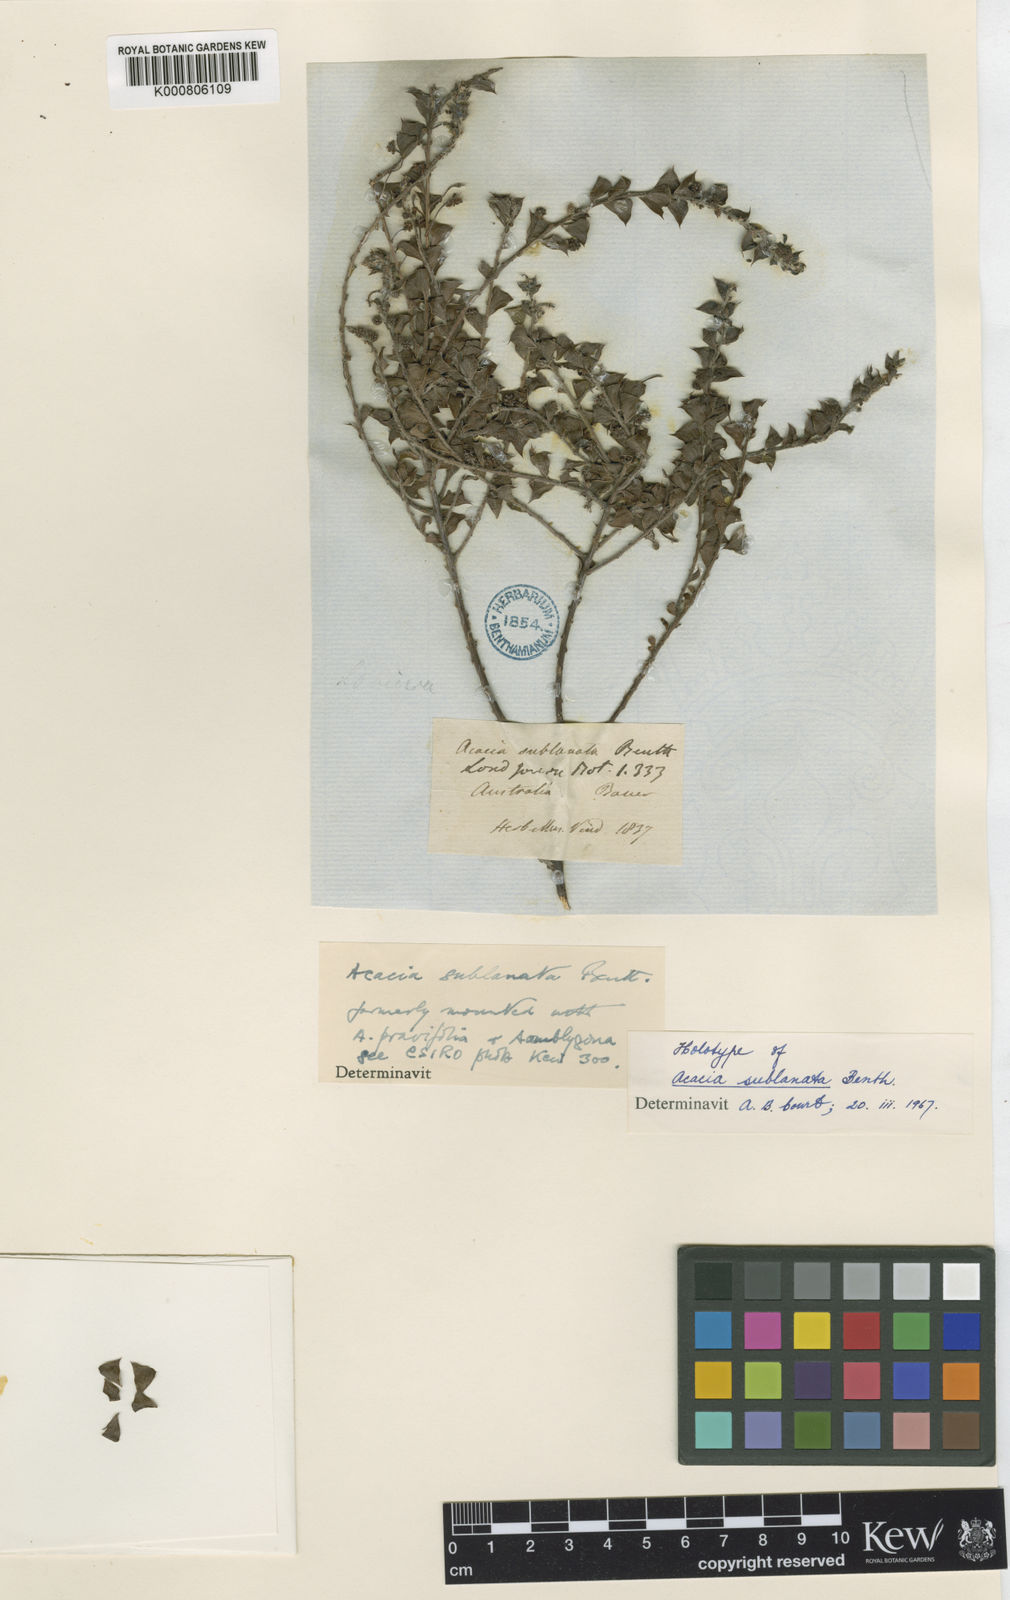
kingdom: Plantae
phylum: Tracheophyta
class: Magnoliopsida
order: Fabales
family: Fabaceae
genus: Acacia
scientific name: Acacia sublanata
